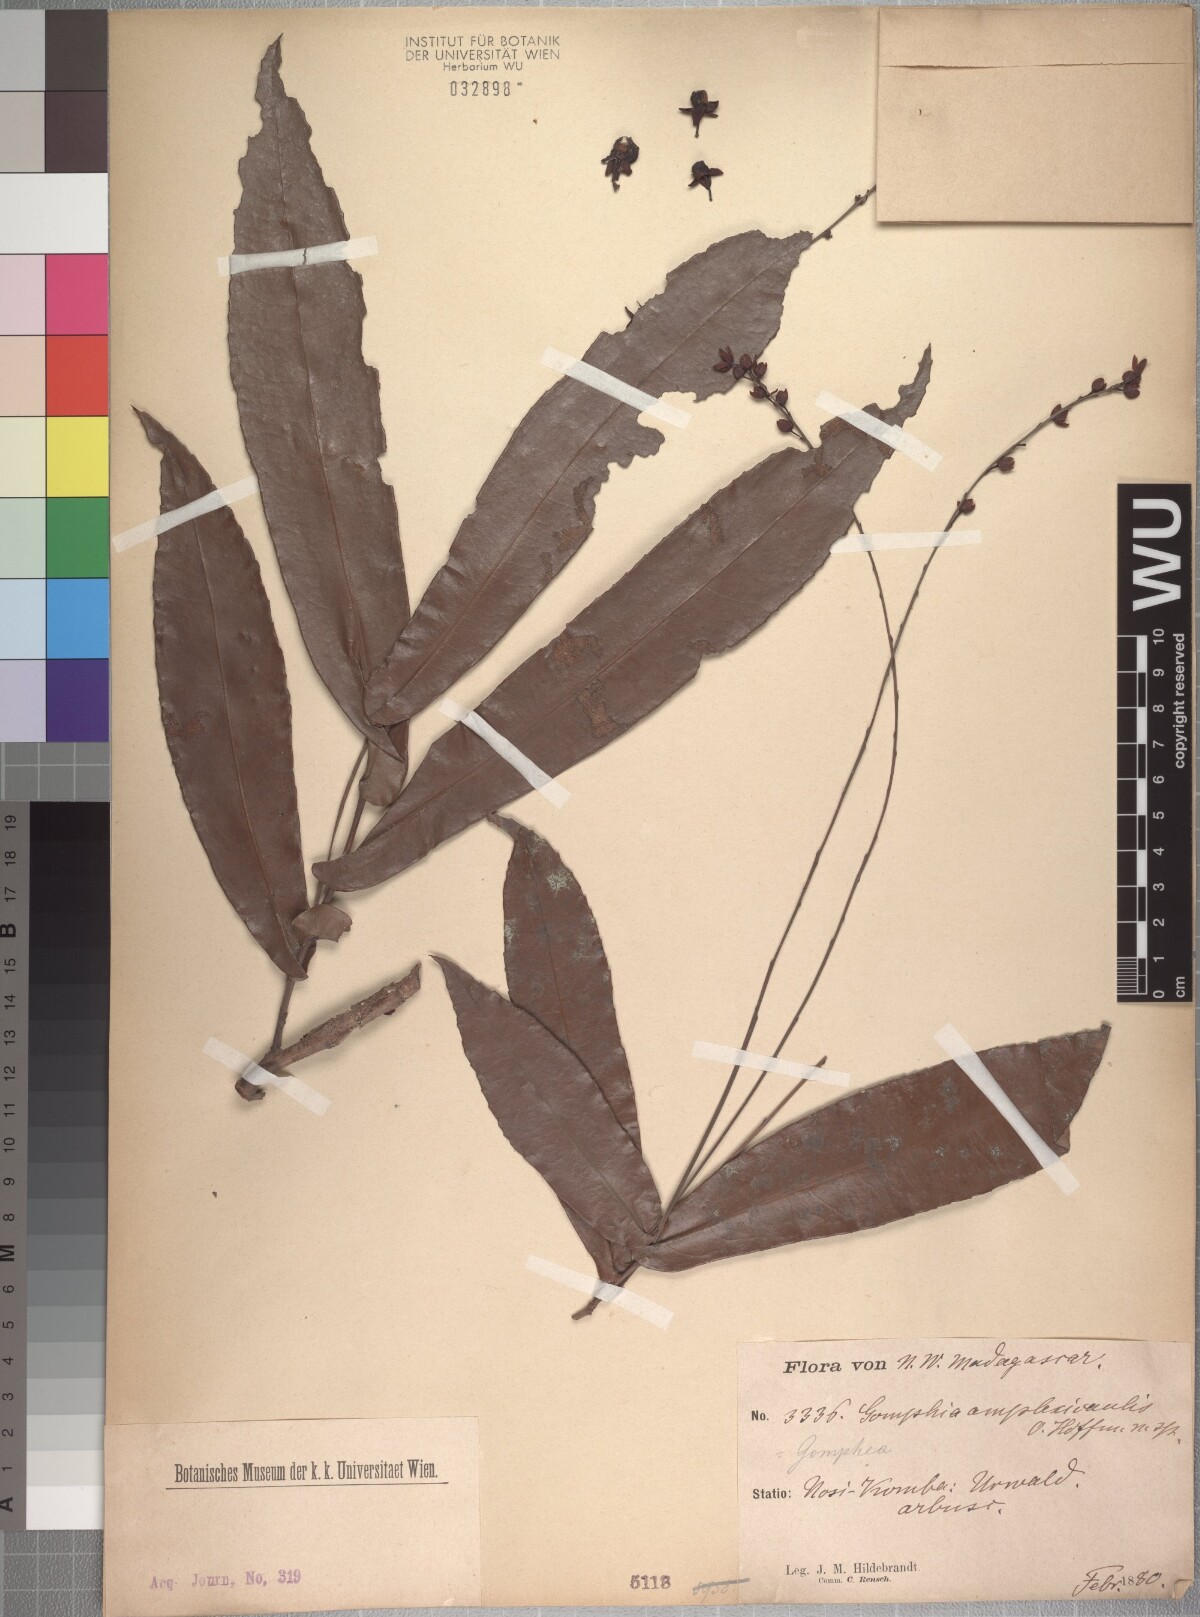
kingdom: Plantae
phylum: Tracheophyta
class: Magnoliopsida
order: Malpighiales
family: Ochnaceae
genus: Campylospermum
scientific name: Campylospermum dependens
